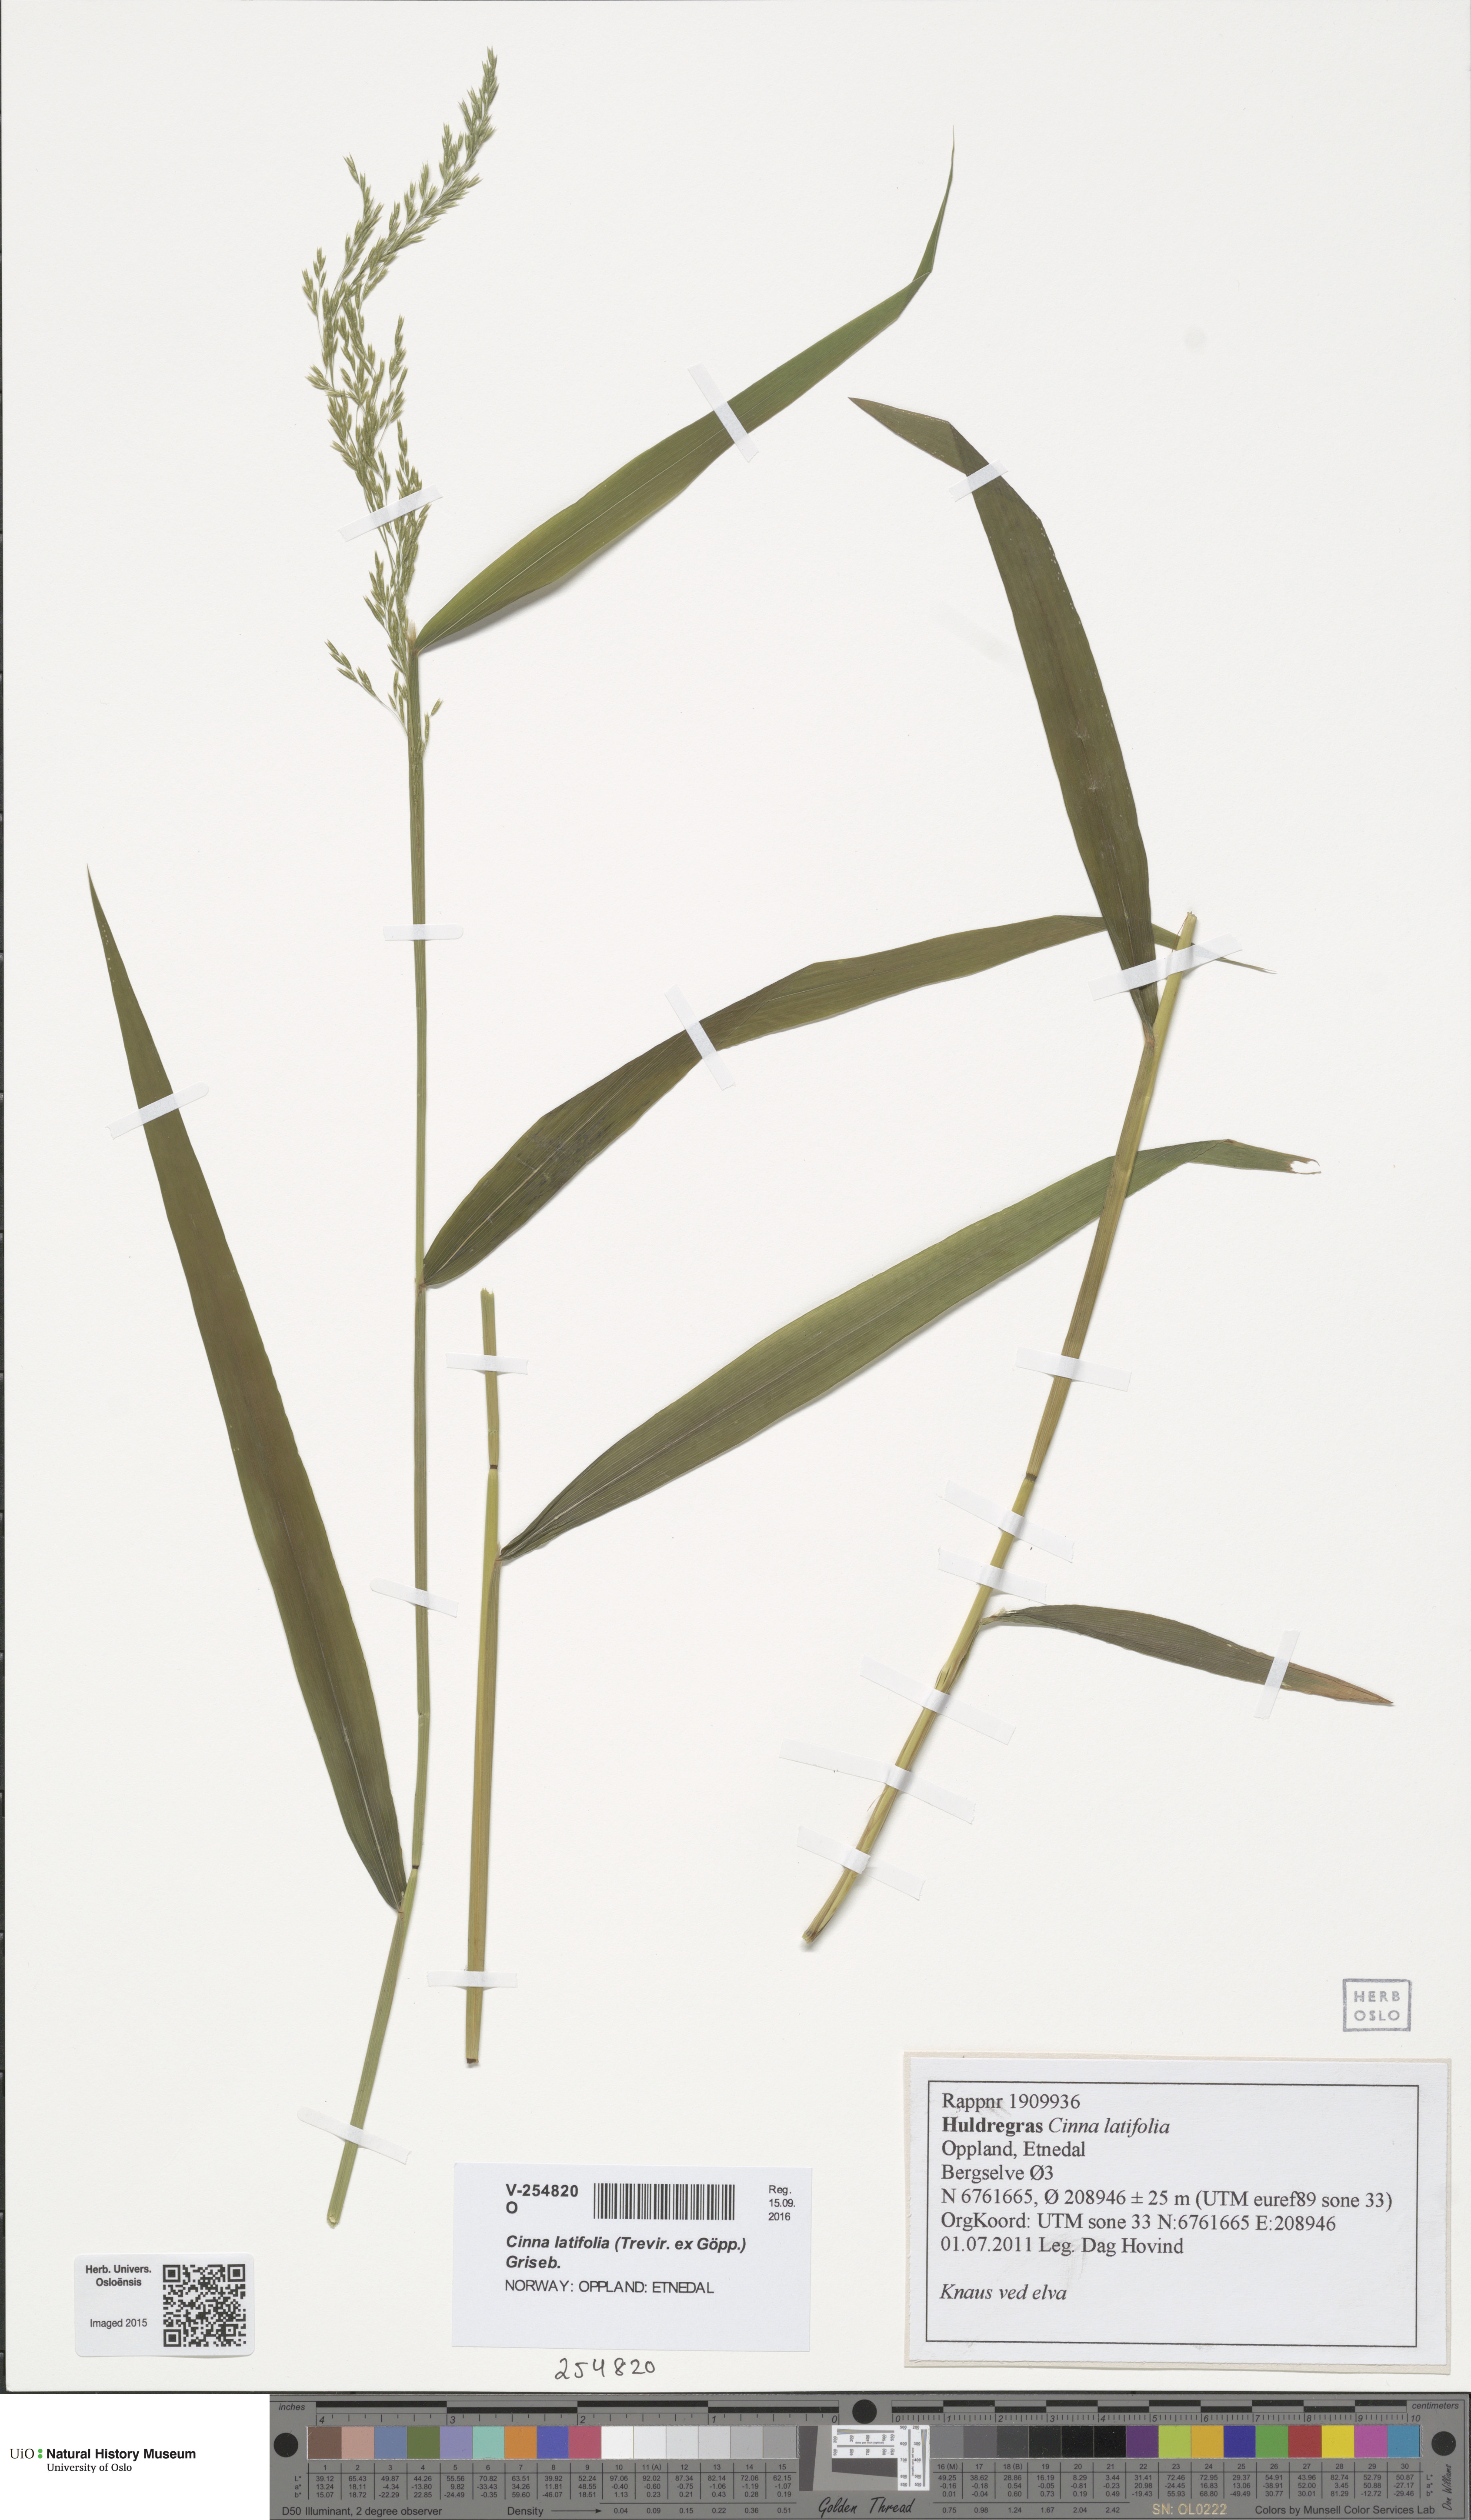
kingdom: Plantae
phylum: Tracheophyta
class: Liliopsida
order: Poales
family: Poaceae
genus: Cinna
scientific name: Cinna latifolia
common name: Drooping woodreed
